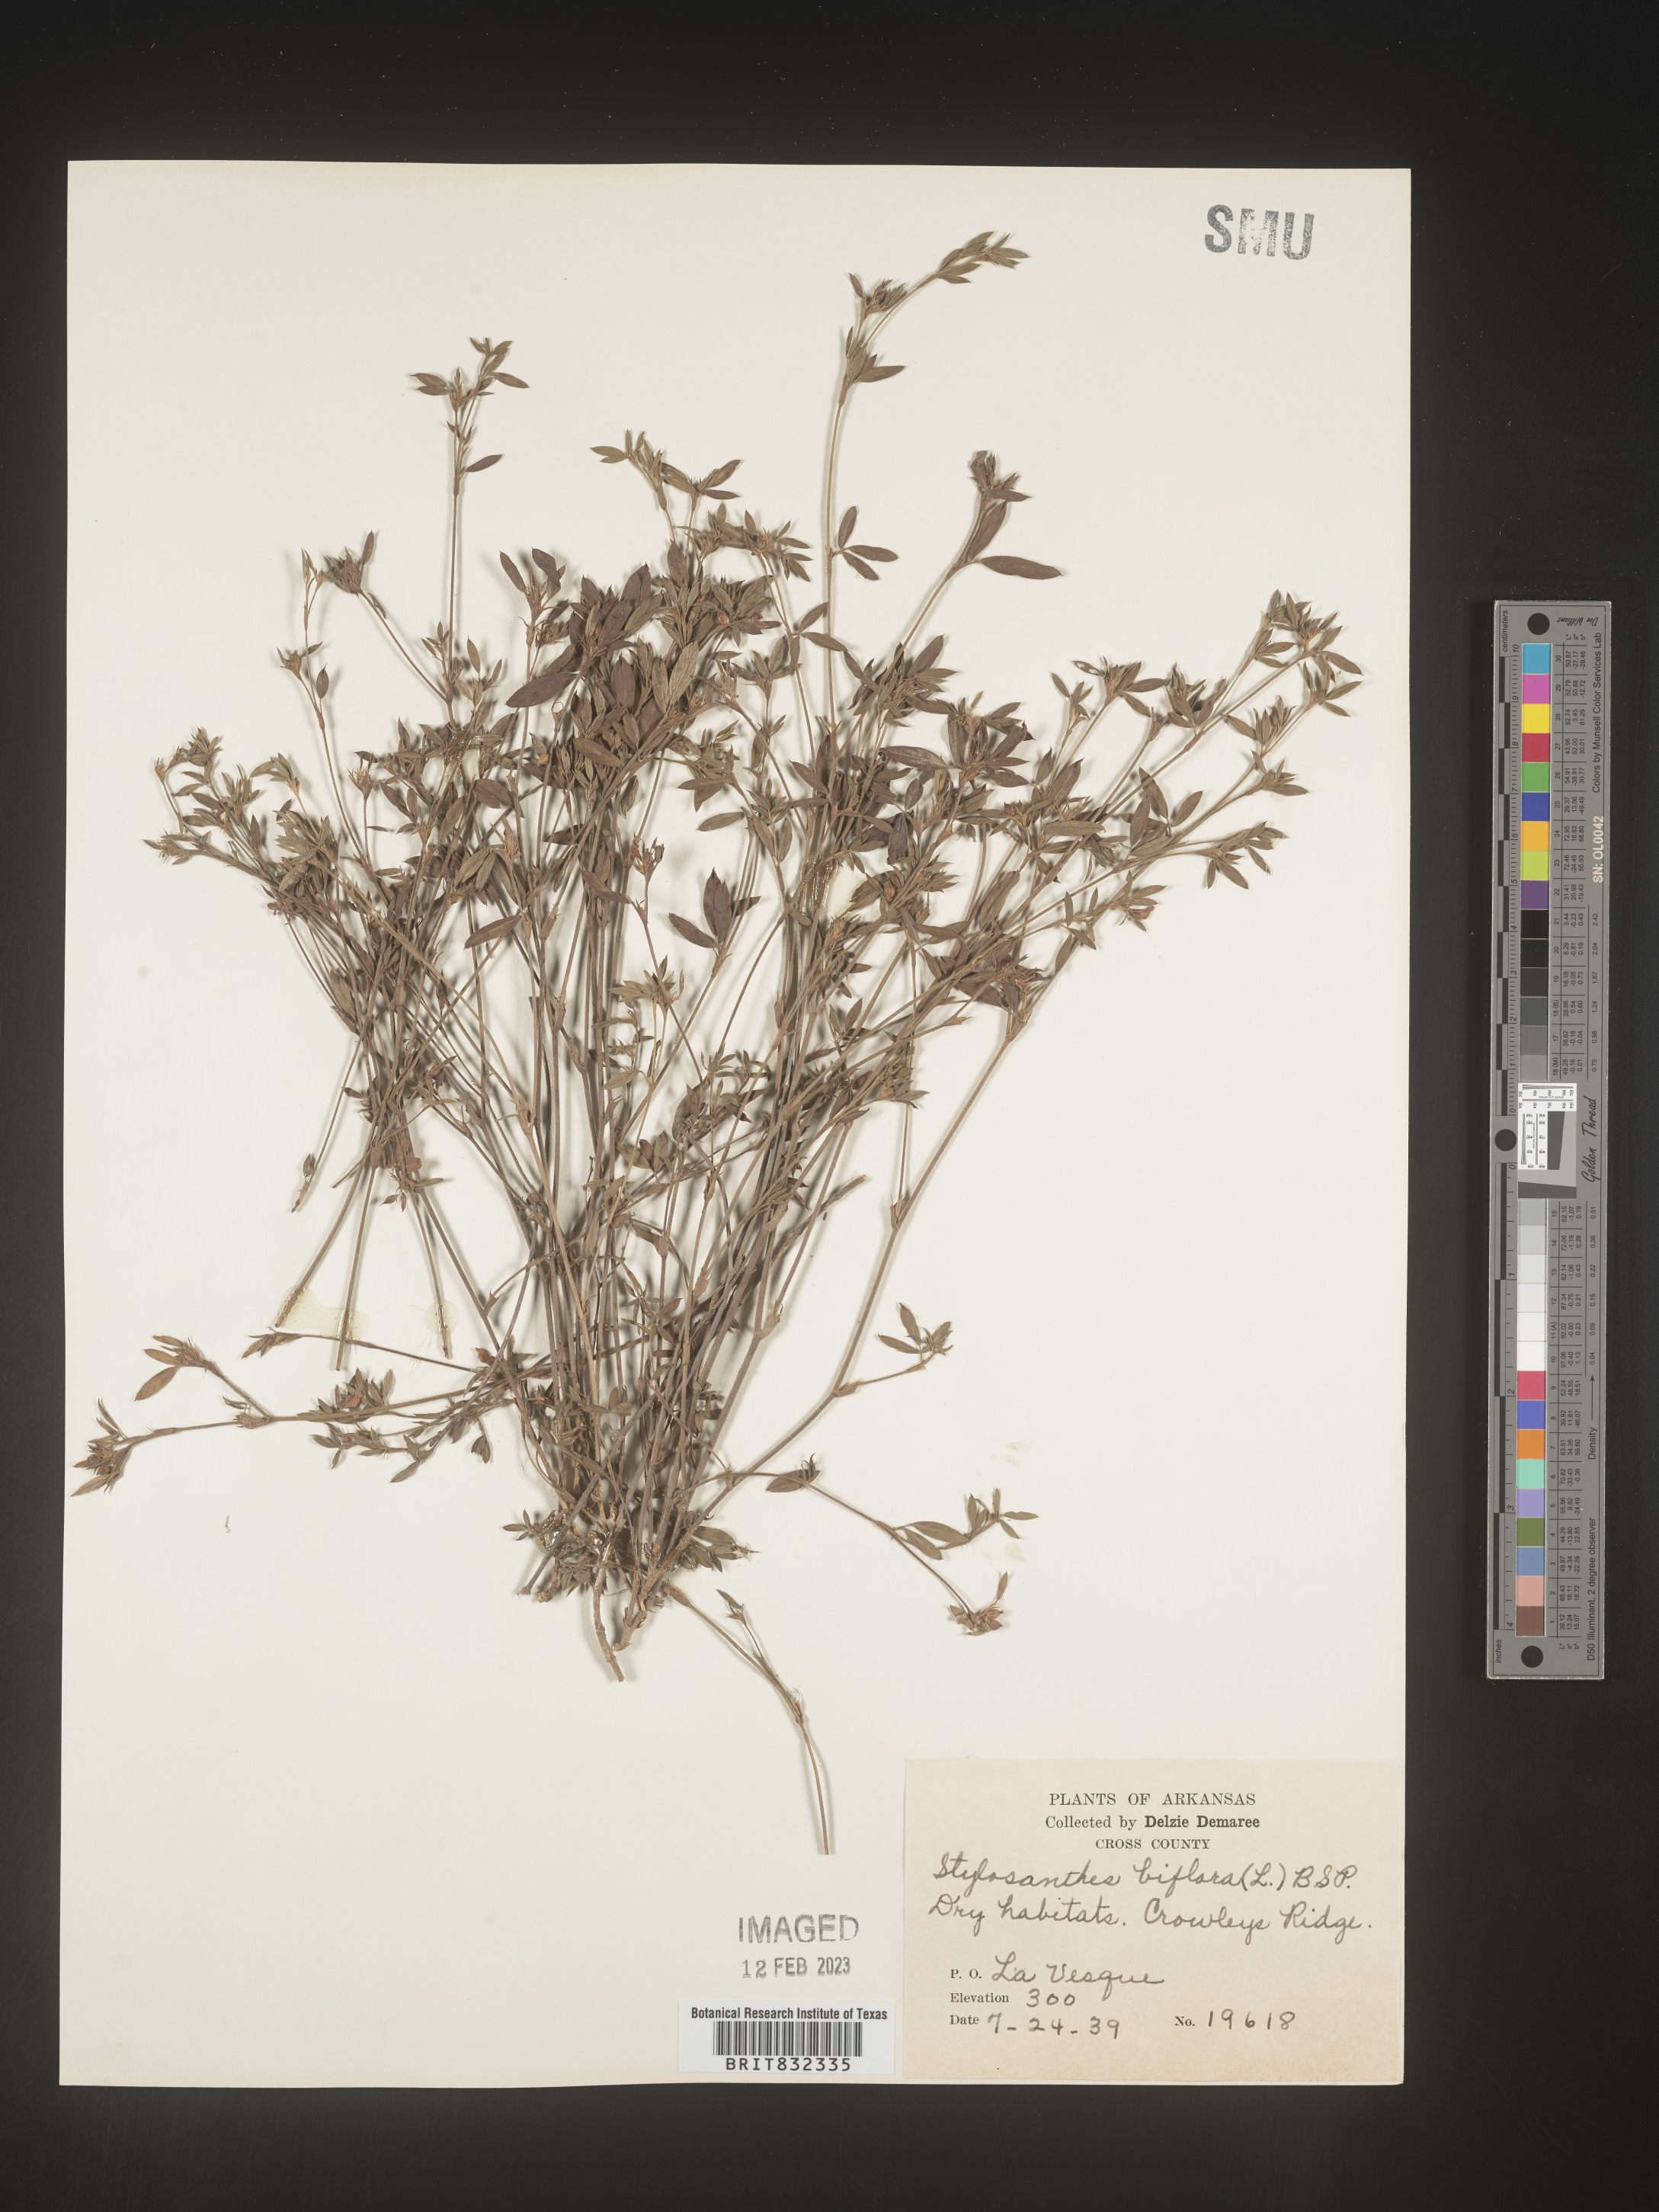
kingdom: Plantae
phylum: Tracheophyta
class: Magnoliopsida
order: Fabales
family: Fabaceae
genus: Stylosanthes
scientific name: Stylosanthes biflora
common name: Two-flower pencil-flower
